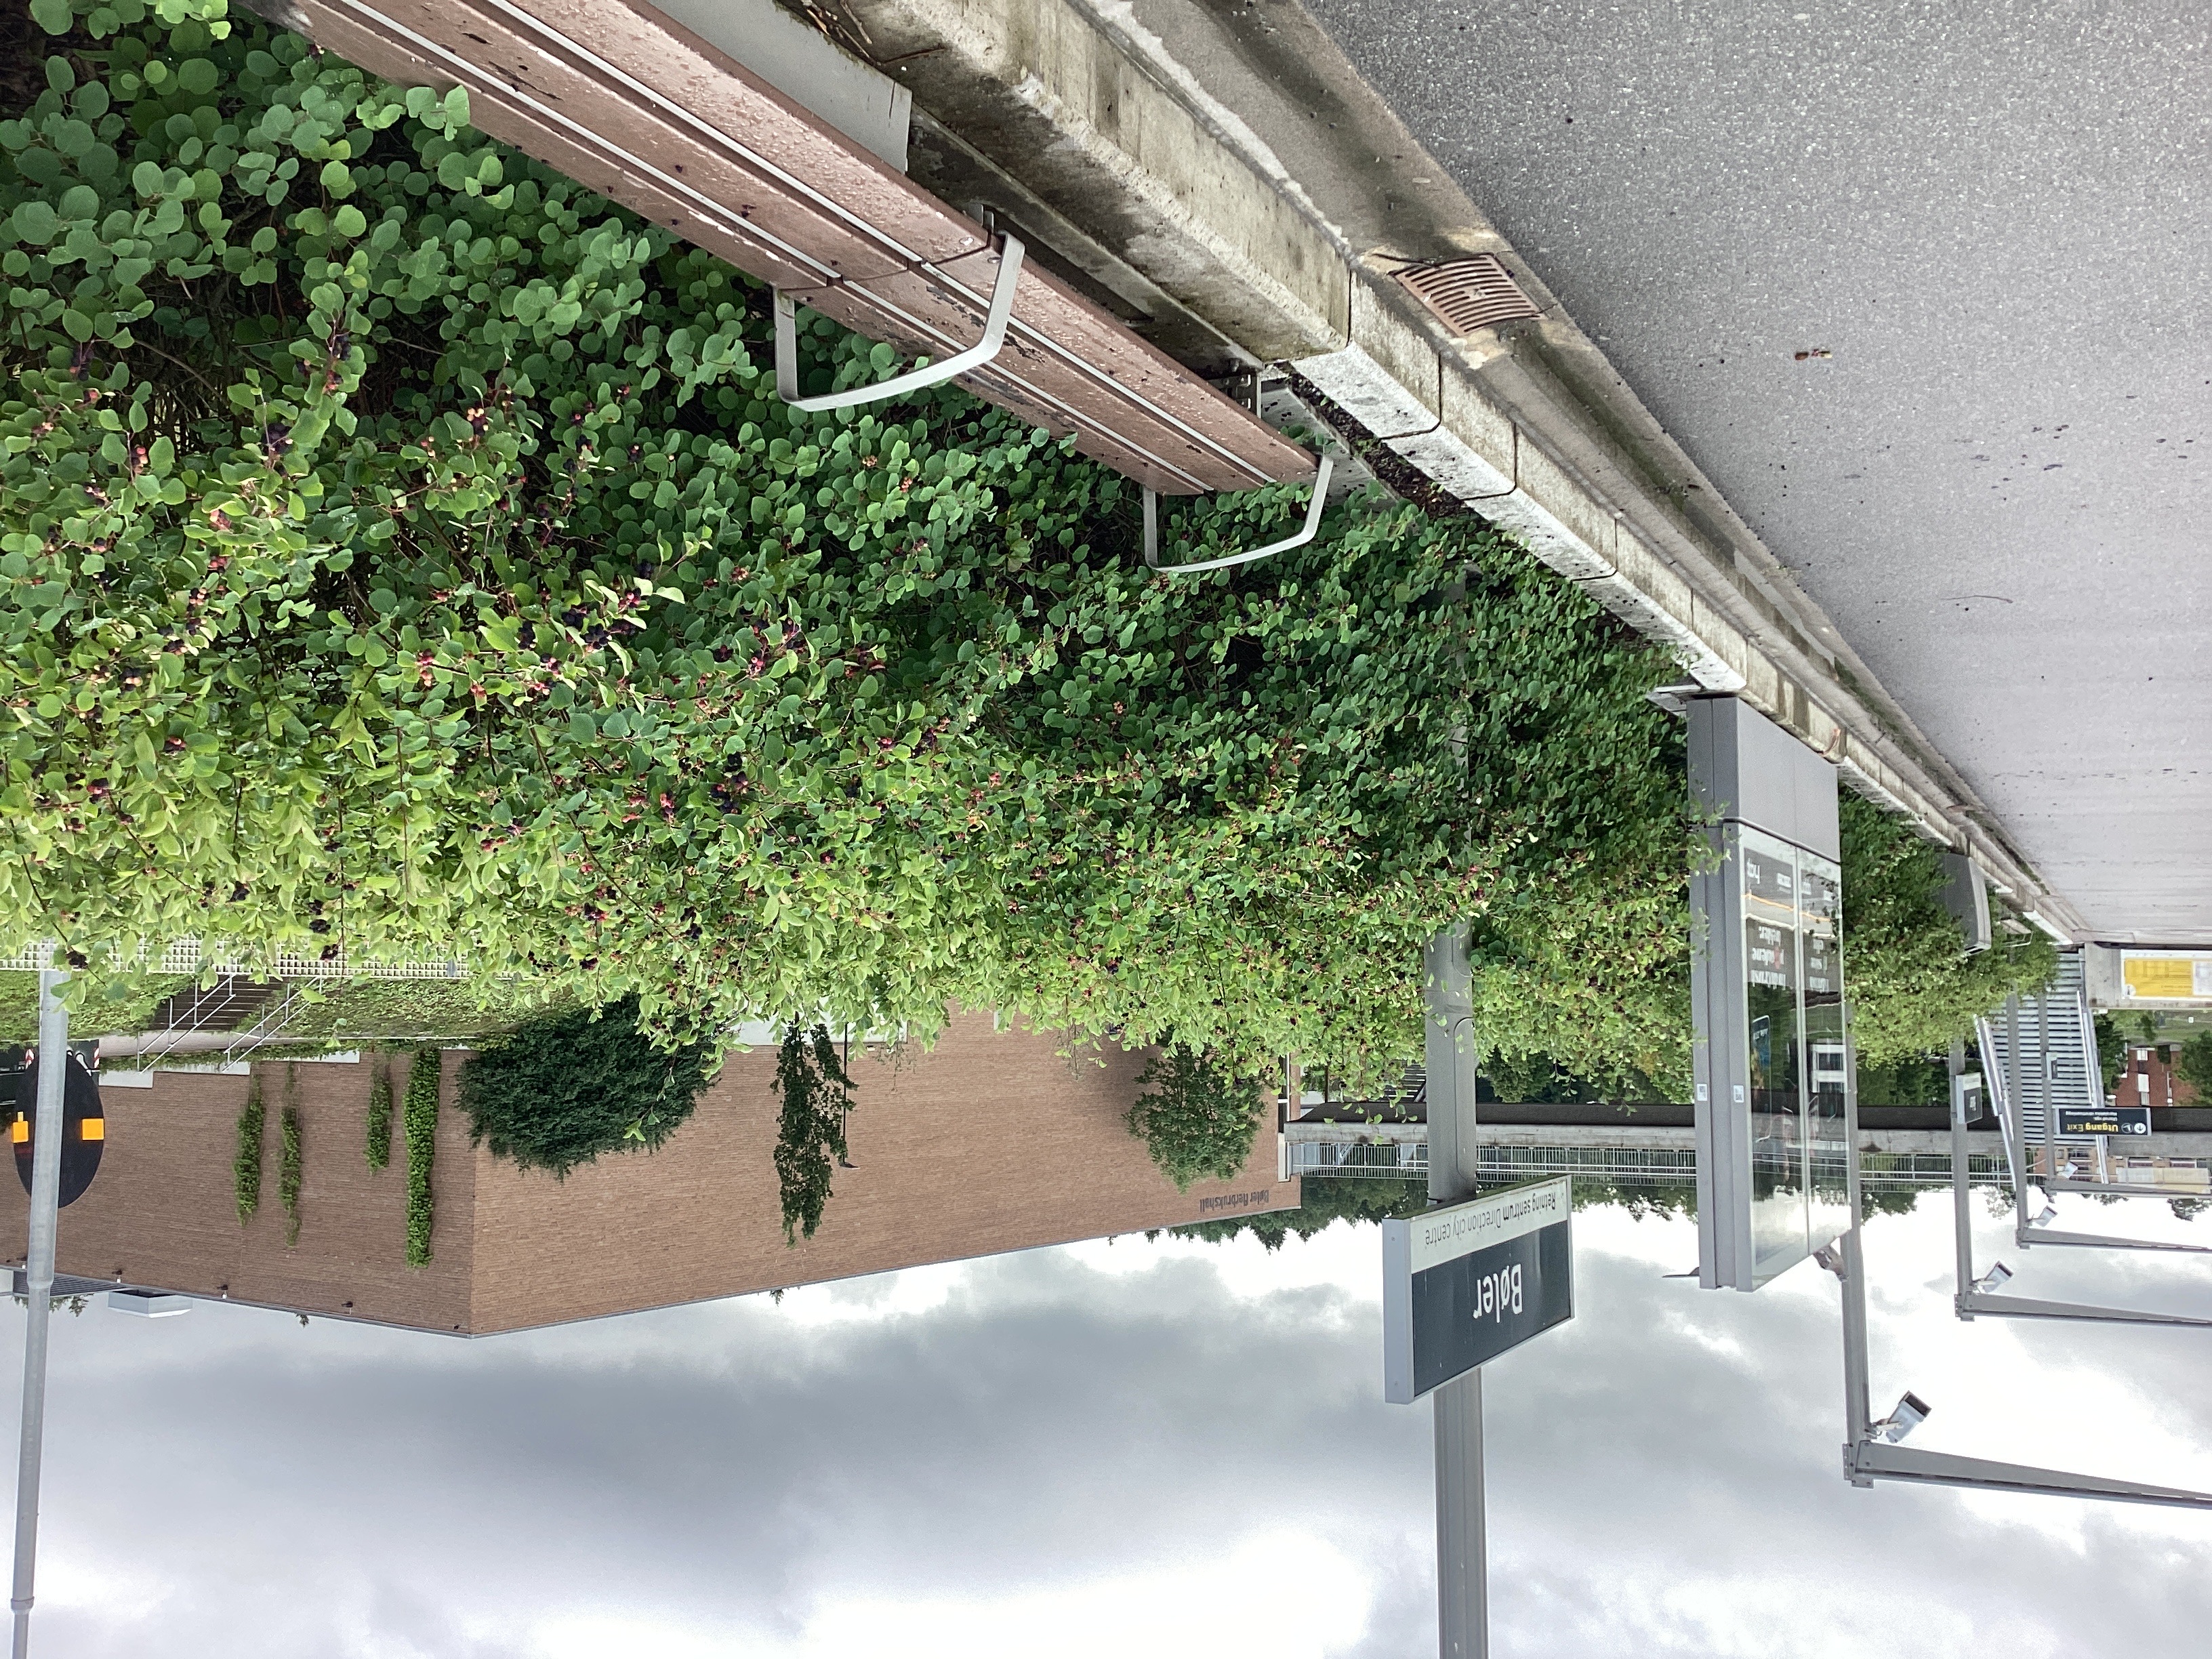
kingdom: Plantae
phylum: Tracheophyta
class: Magnoliopsida
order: Rosales
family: Rosaceae
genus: Amelanchier
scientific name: Amelanchier alnifolia
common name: taggblåhegg
